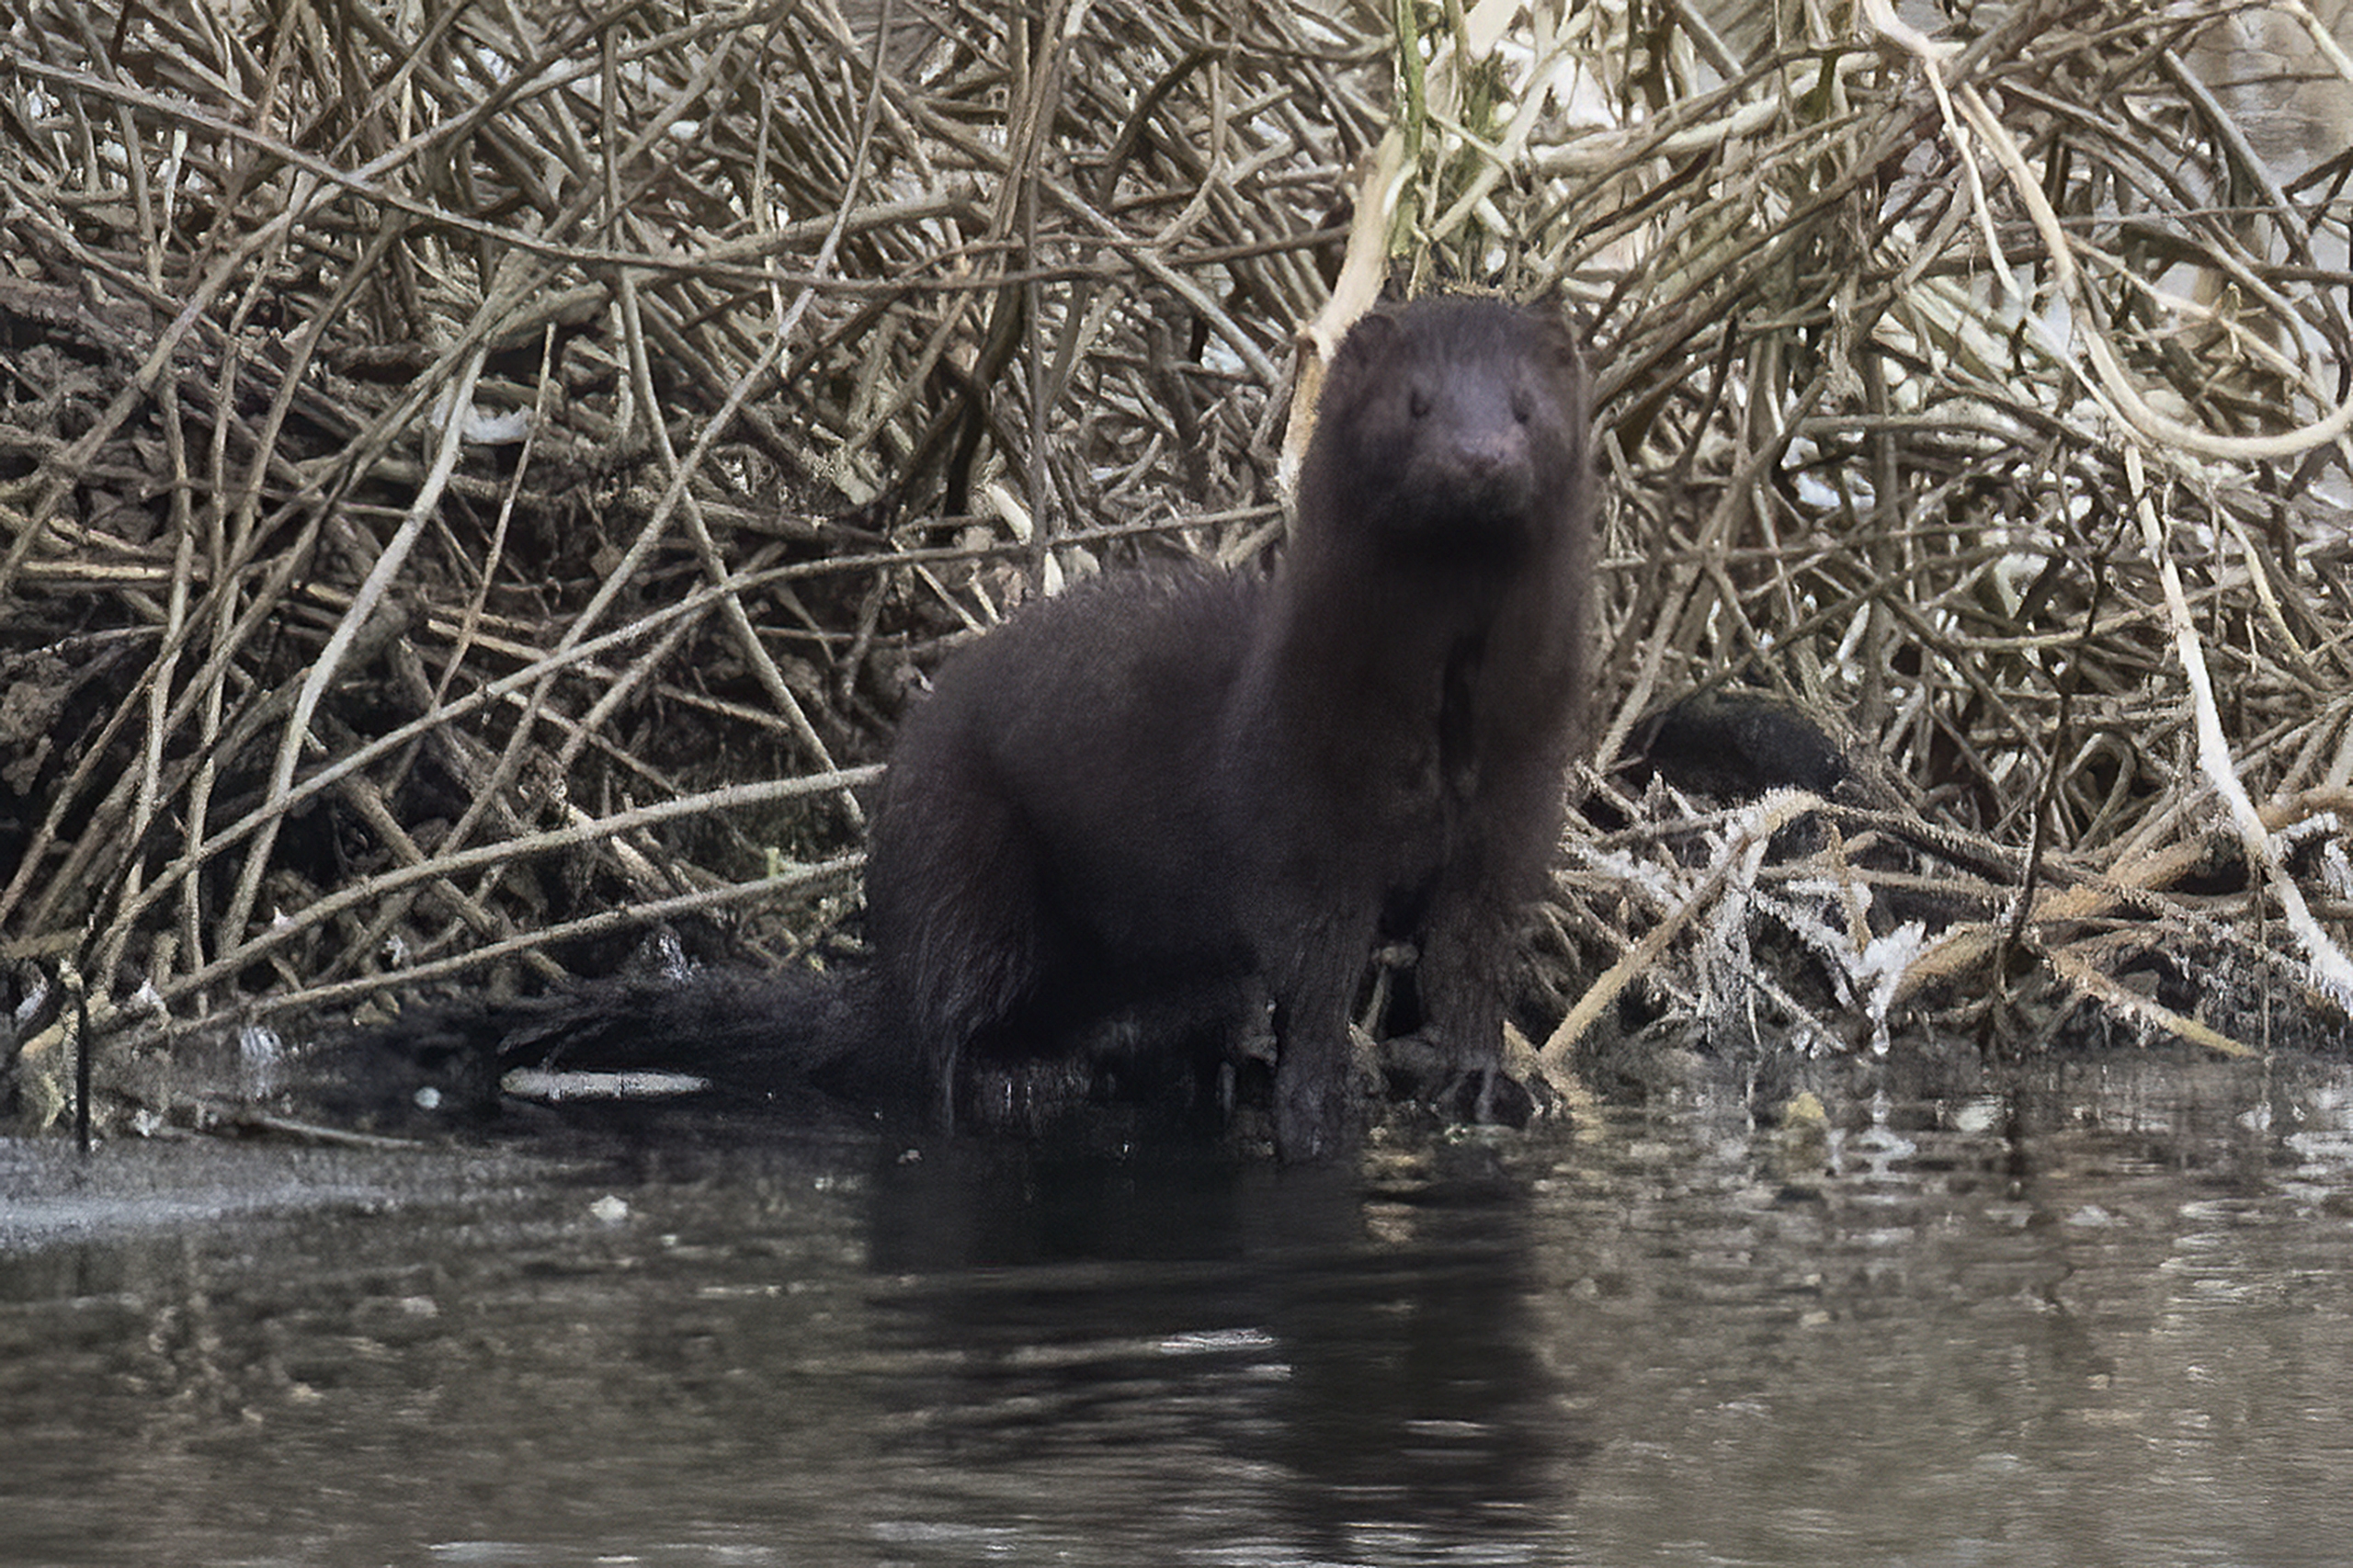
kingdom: Animalia
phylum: Chordata
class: Mammalia
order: Carnivora
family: Mustelidae
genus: Mustela
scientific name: Mustela vison
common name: Mink
